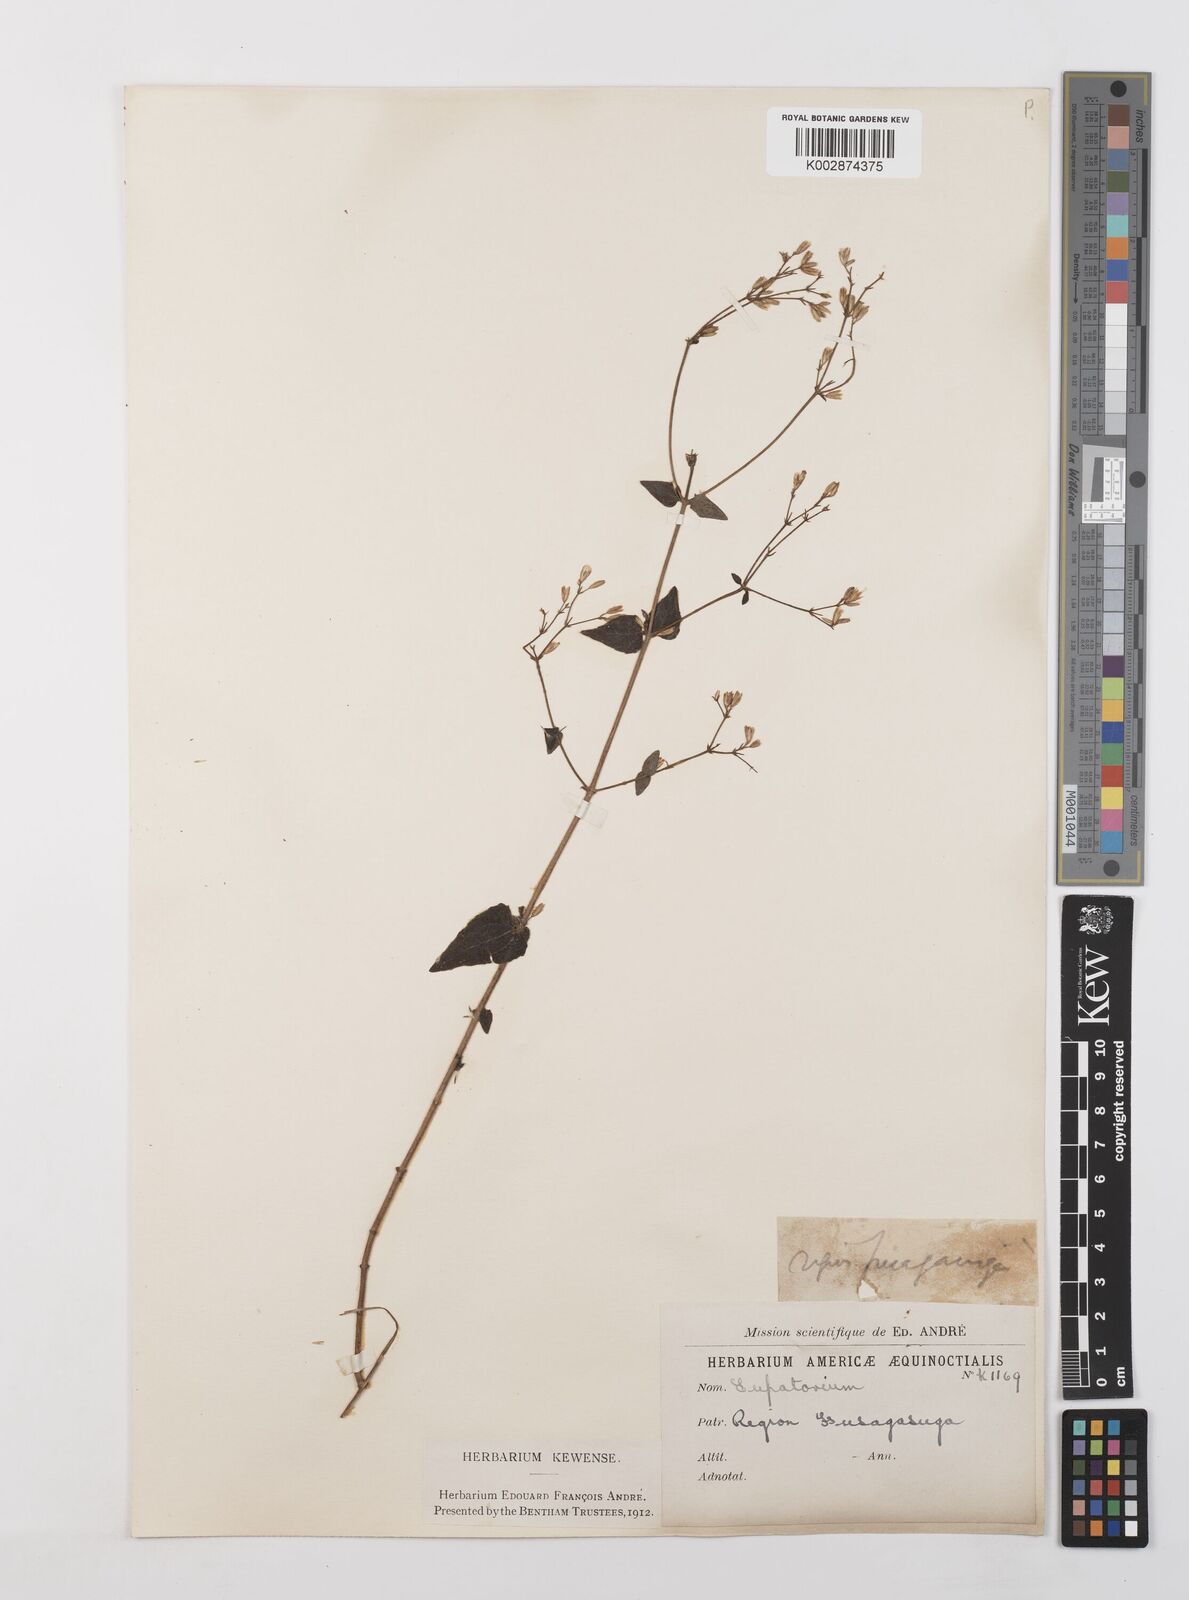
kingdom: Plantae
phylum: Tracheophyta
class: Magnoliopsida
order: Asterales
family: Asteraceae
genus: Condylidium
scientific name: Condylidium iresinoides
